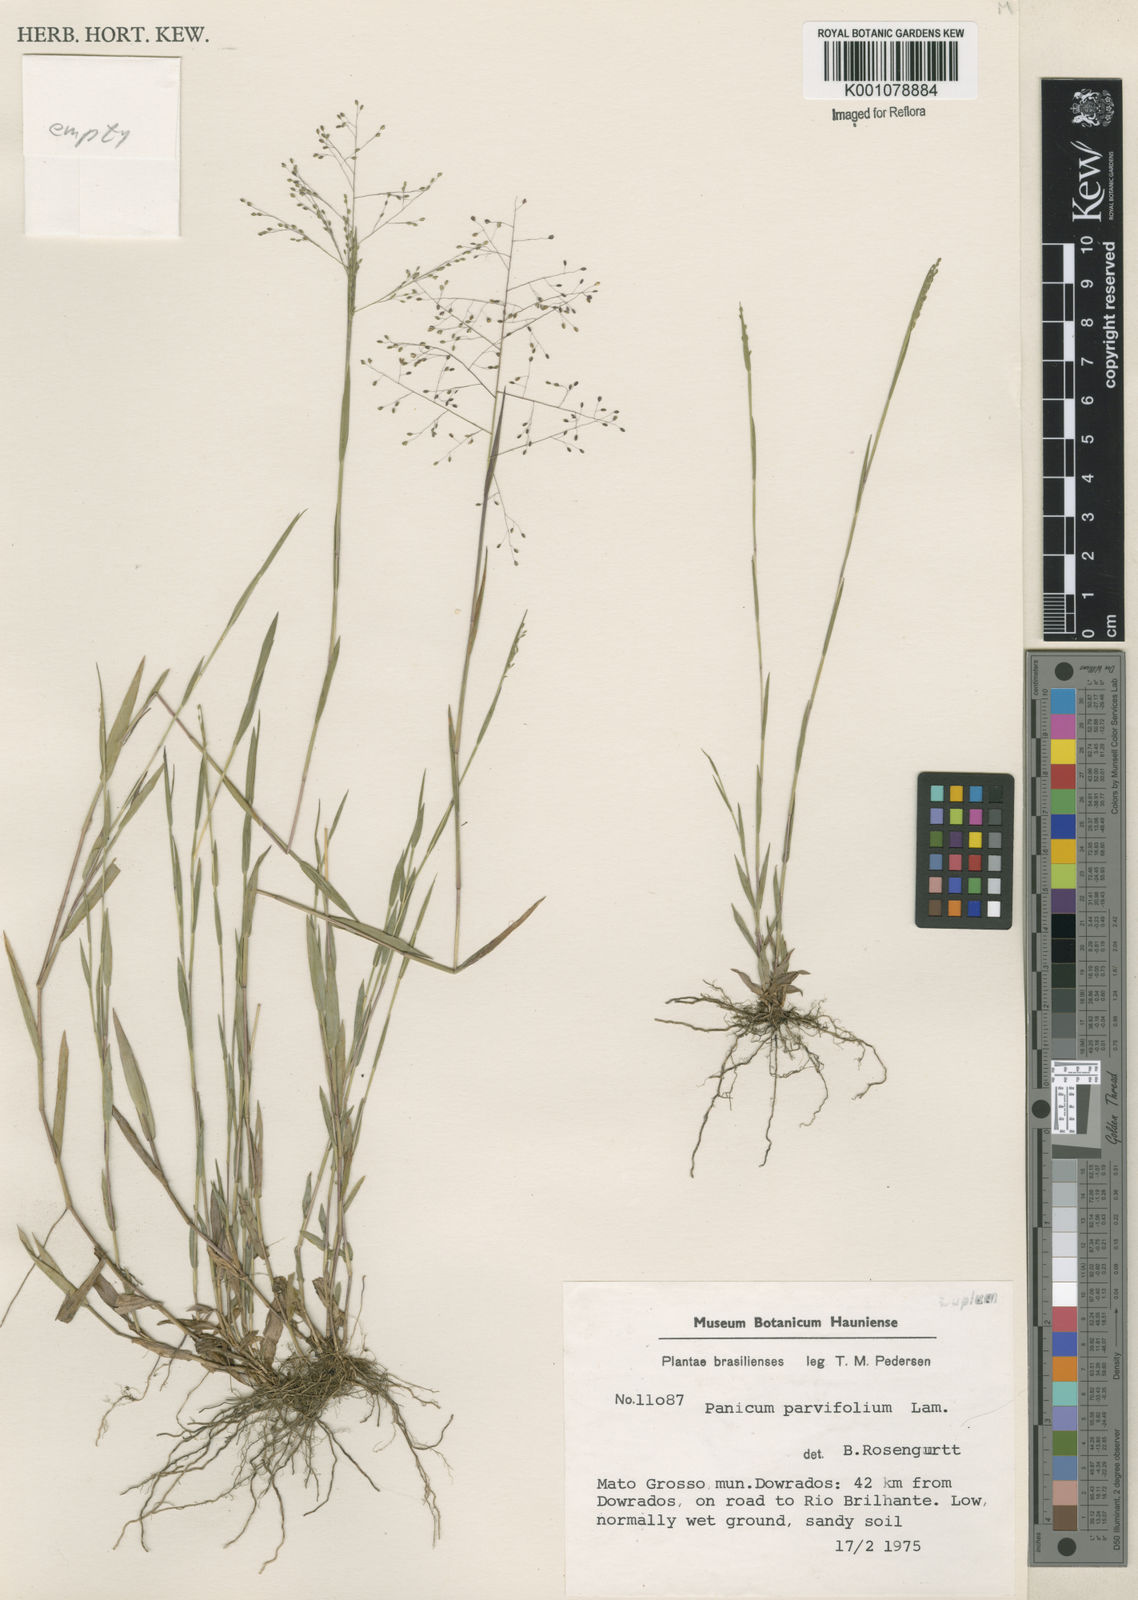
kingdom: Plantae
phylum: Tracheophyta
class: Liliopsida
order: Poales
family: Poaceae
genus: Trichanthecium
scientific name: Trichanthecium parvifolium
